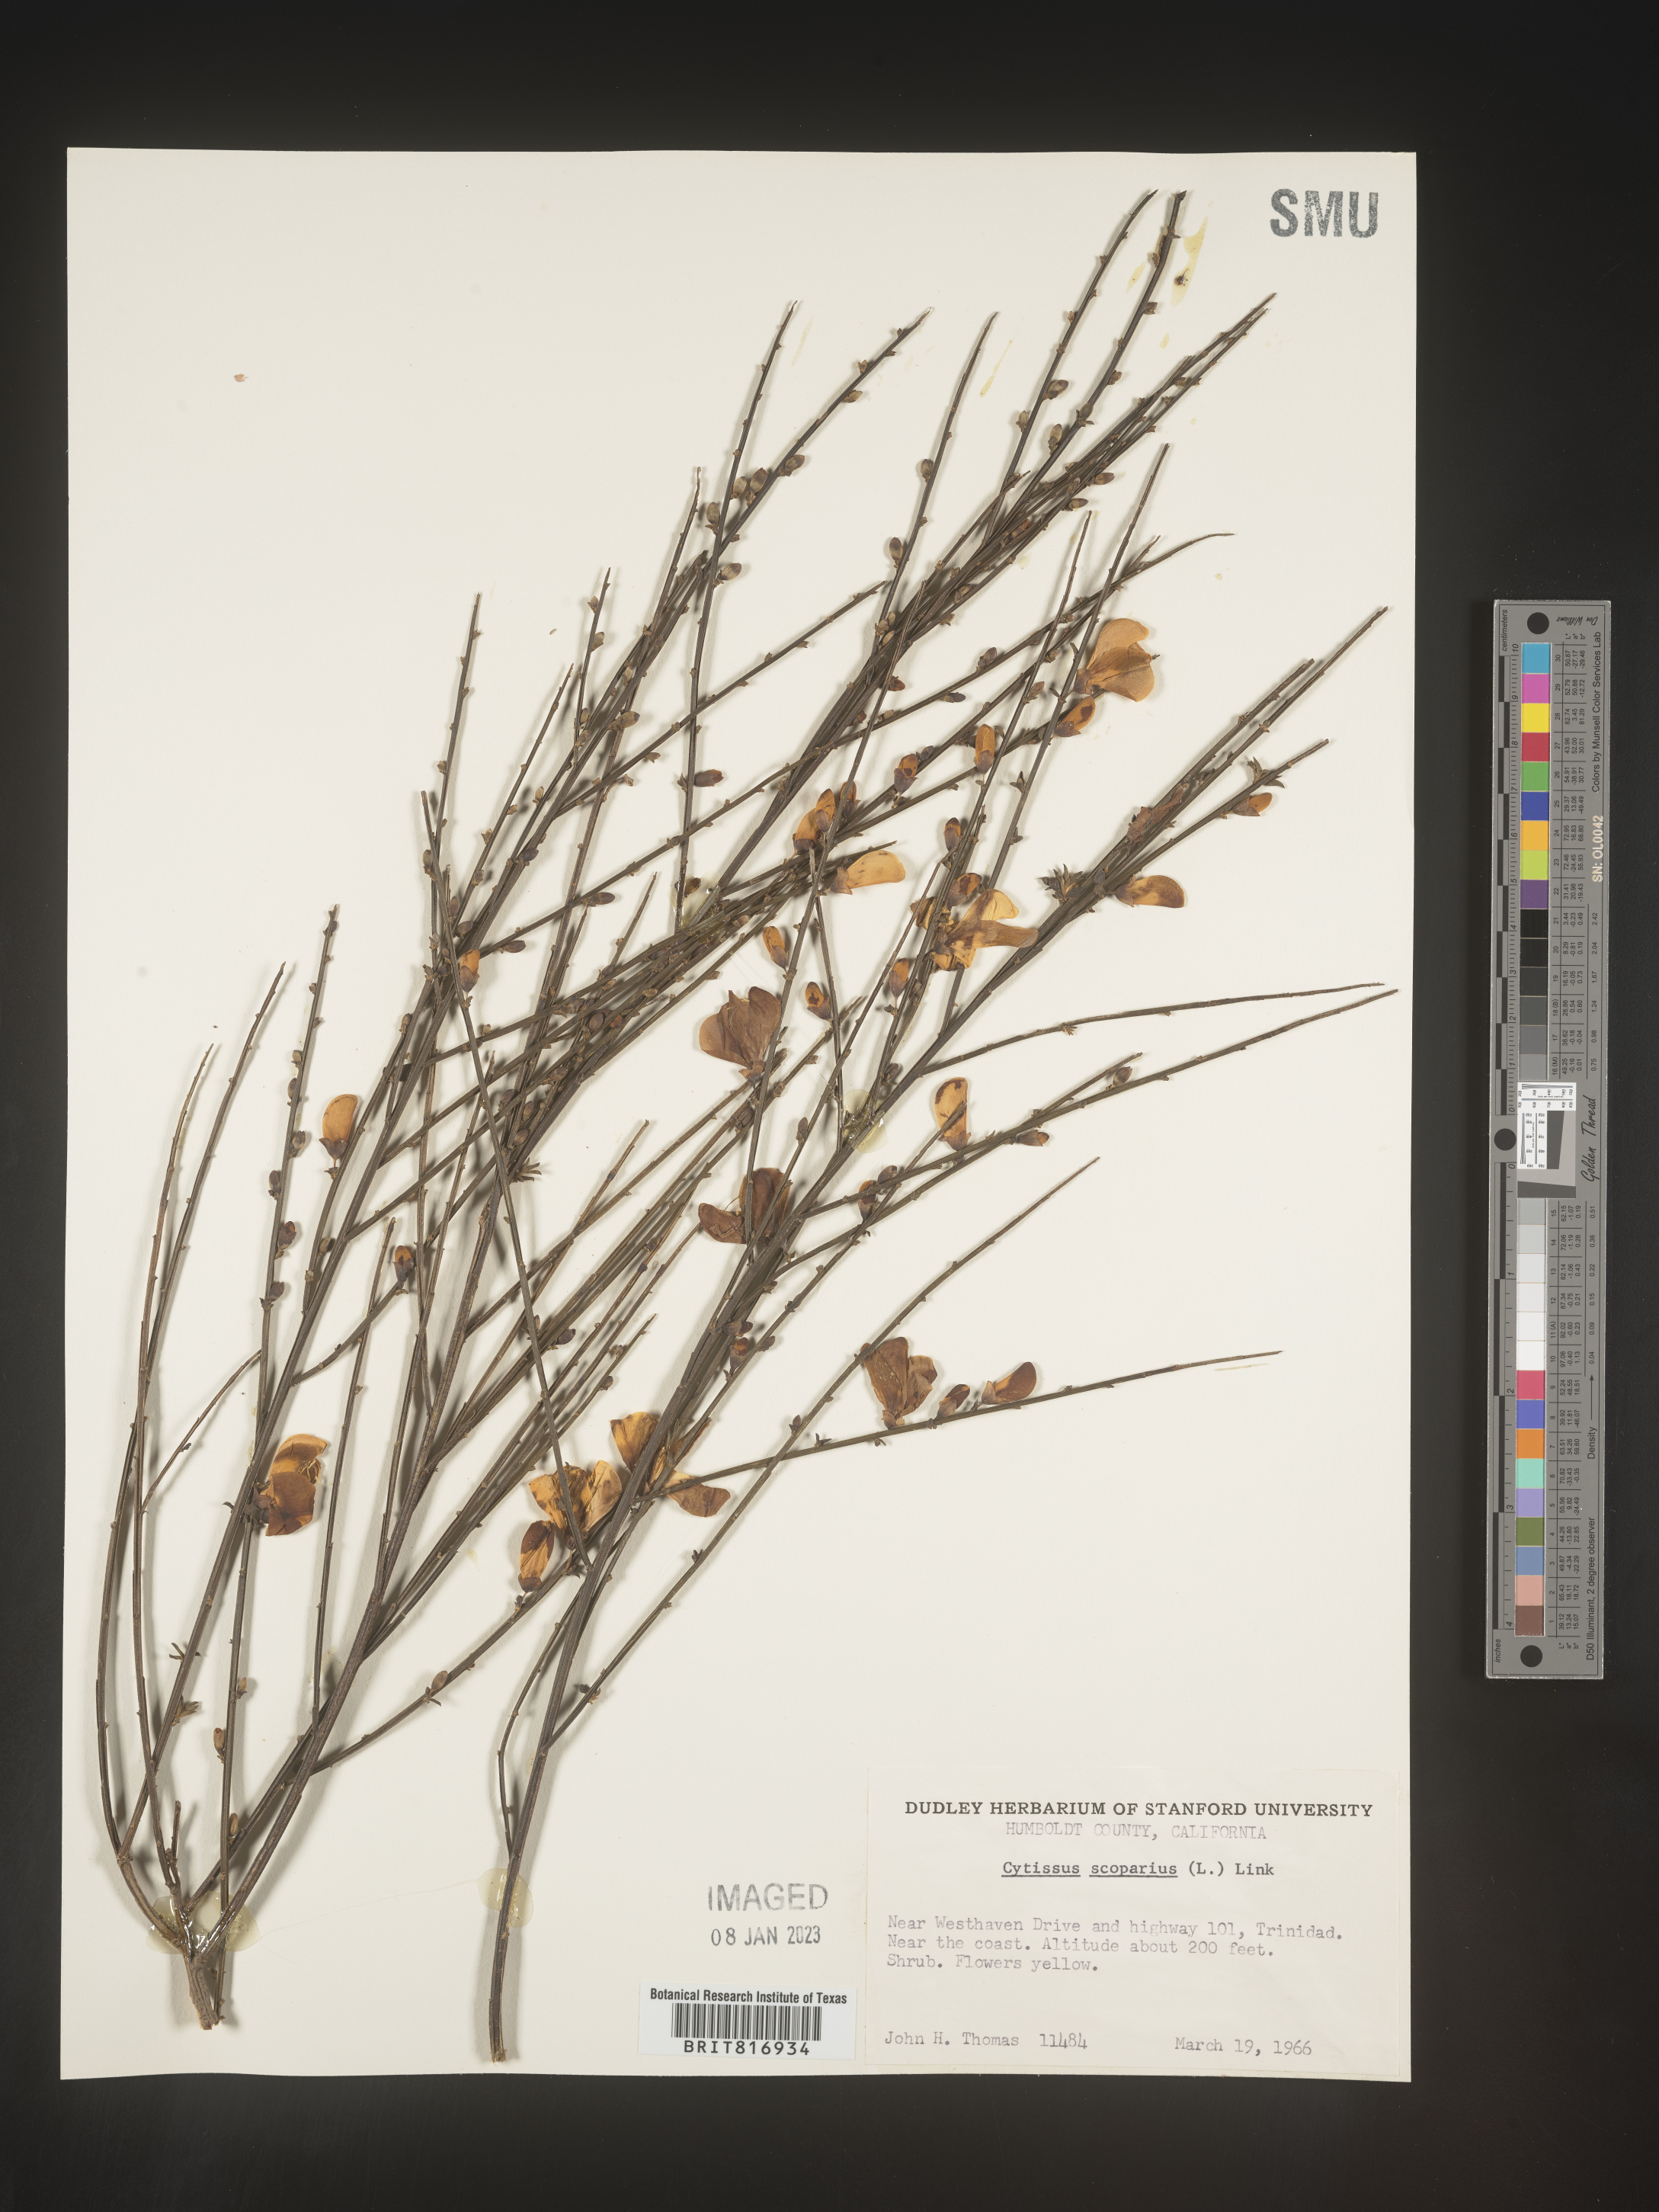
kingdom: Plantae
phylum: Tracheophyta
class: Magnoliopsida
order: Fabales
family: Fabaceae
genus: Cytisus
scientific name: Cytisus
